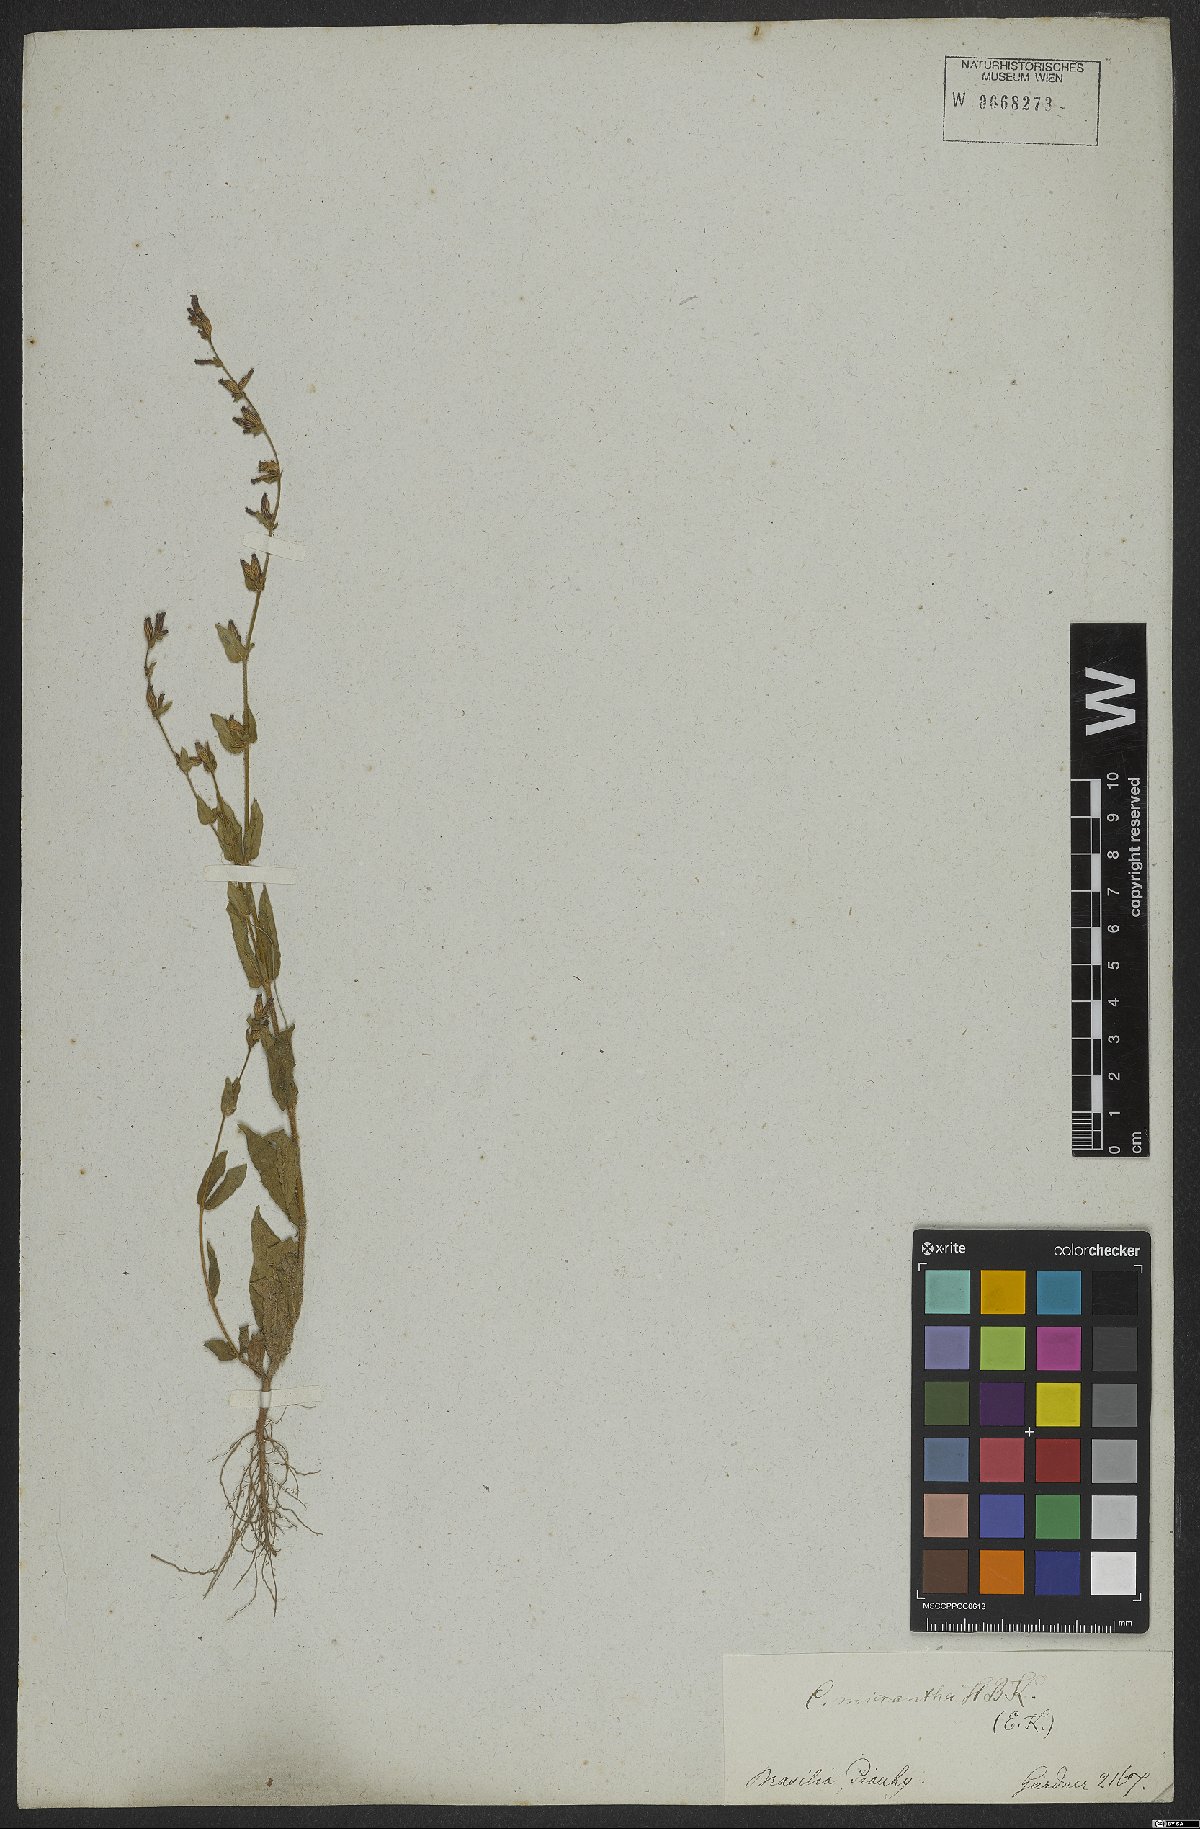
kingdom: Plantae
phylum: Tracheophyta
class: Magnoliopsida
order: Myrtales
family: Lythraceae
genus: Cuphea
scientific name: Cuphea micrantha
